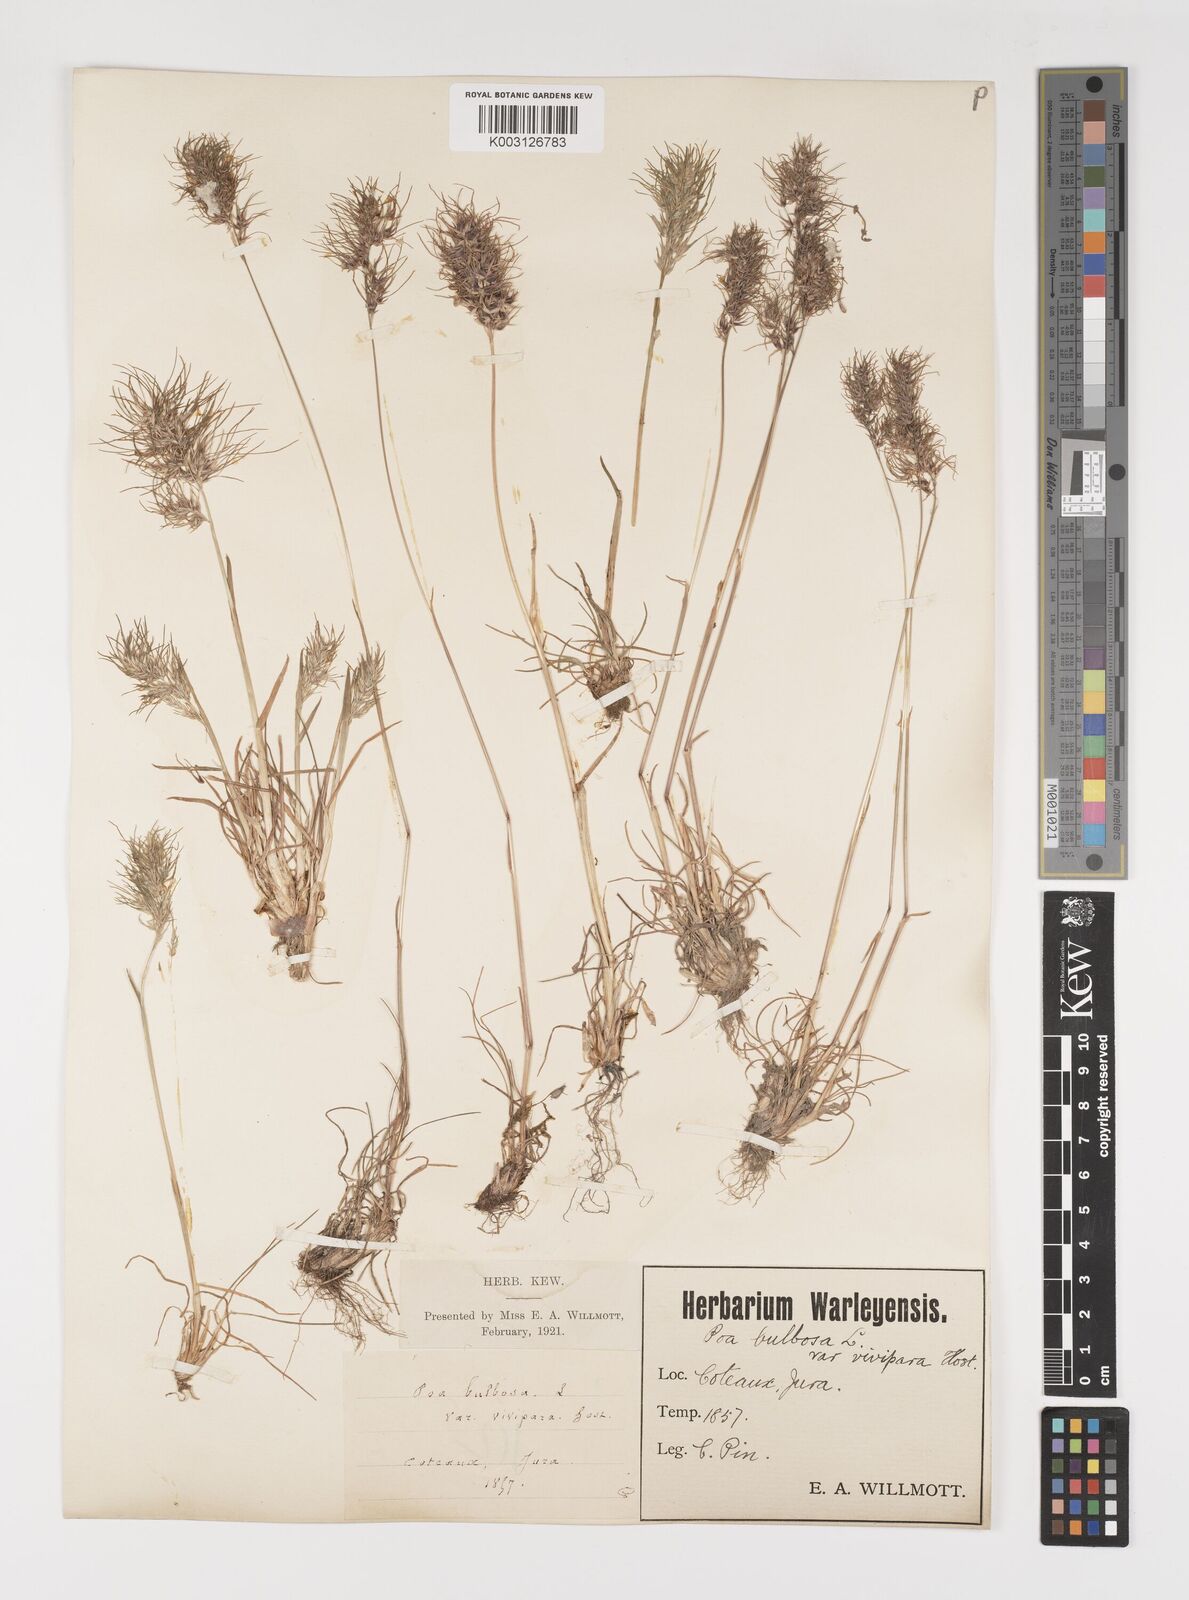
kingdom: Plantae
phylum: Tracheophyta
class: Liliopsida
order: Poales
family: Poaceae
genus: Poa
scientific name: Poa bulbosa
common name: Bulbous bluegrass
